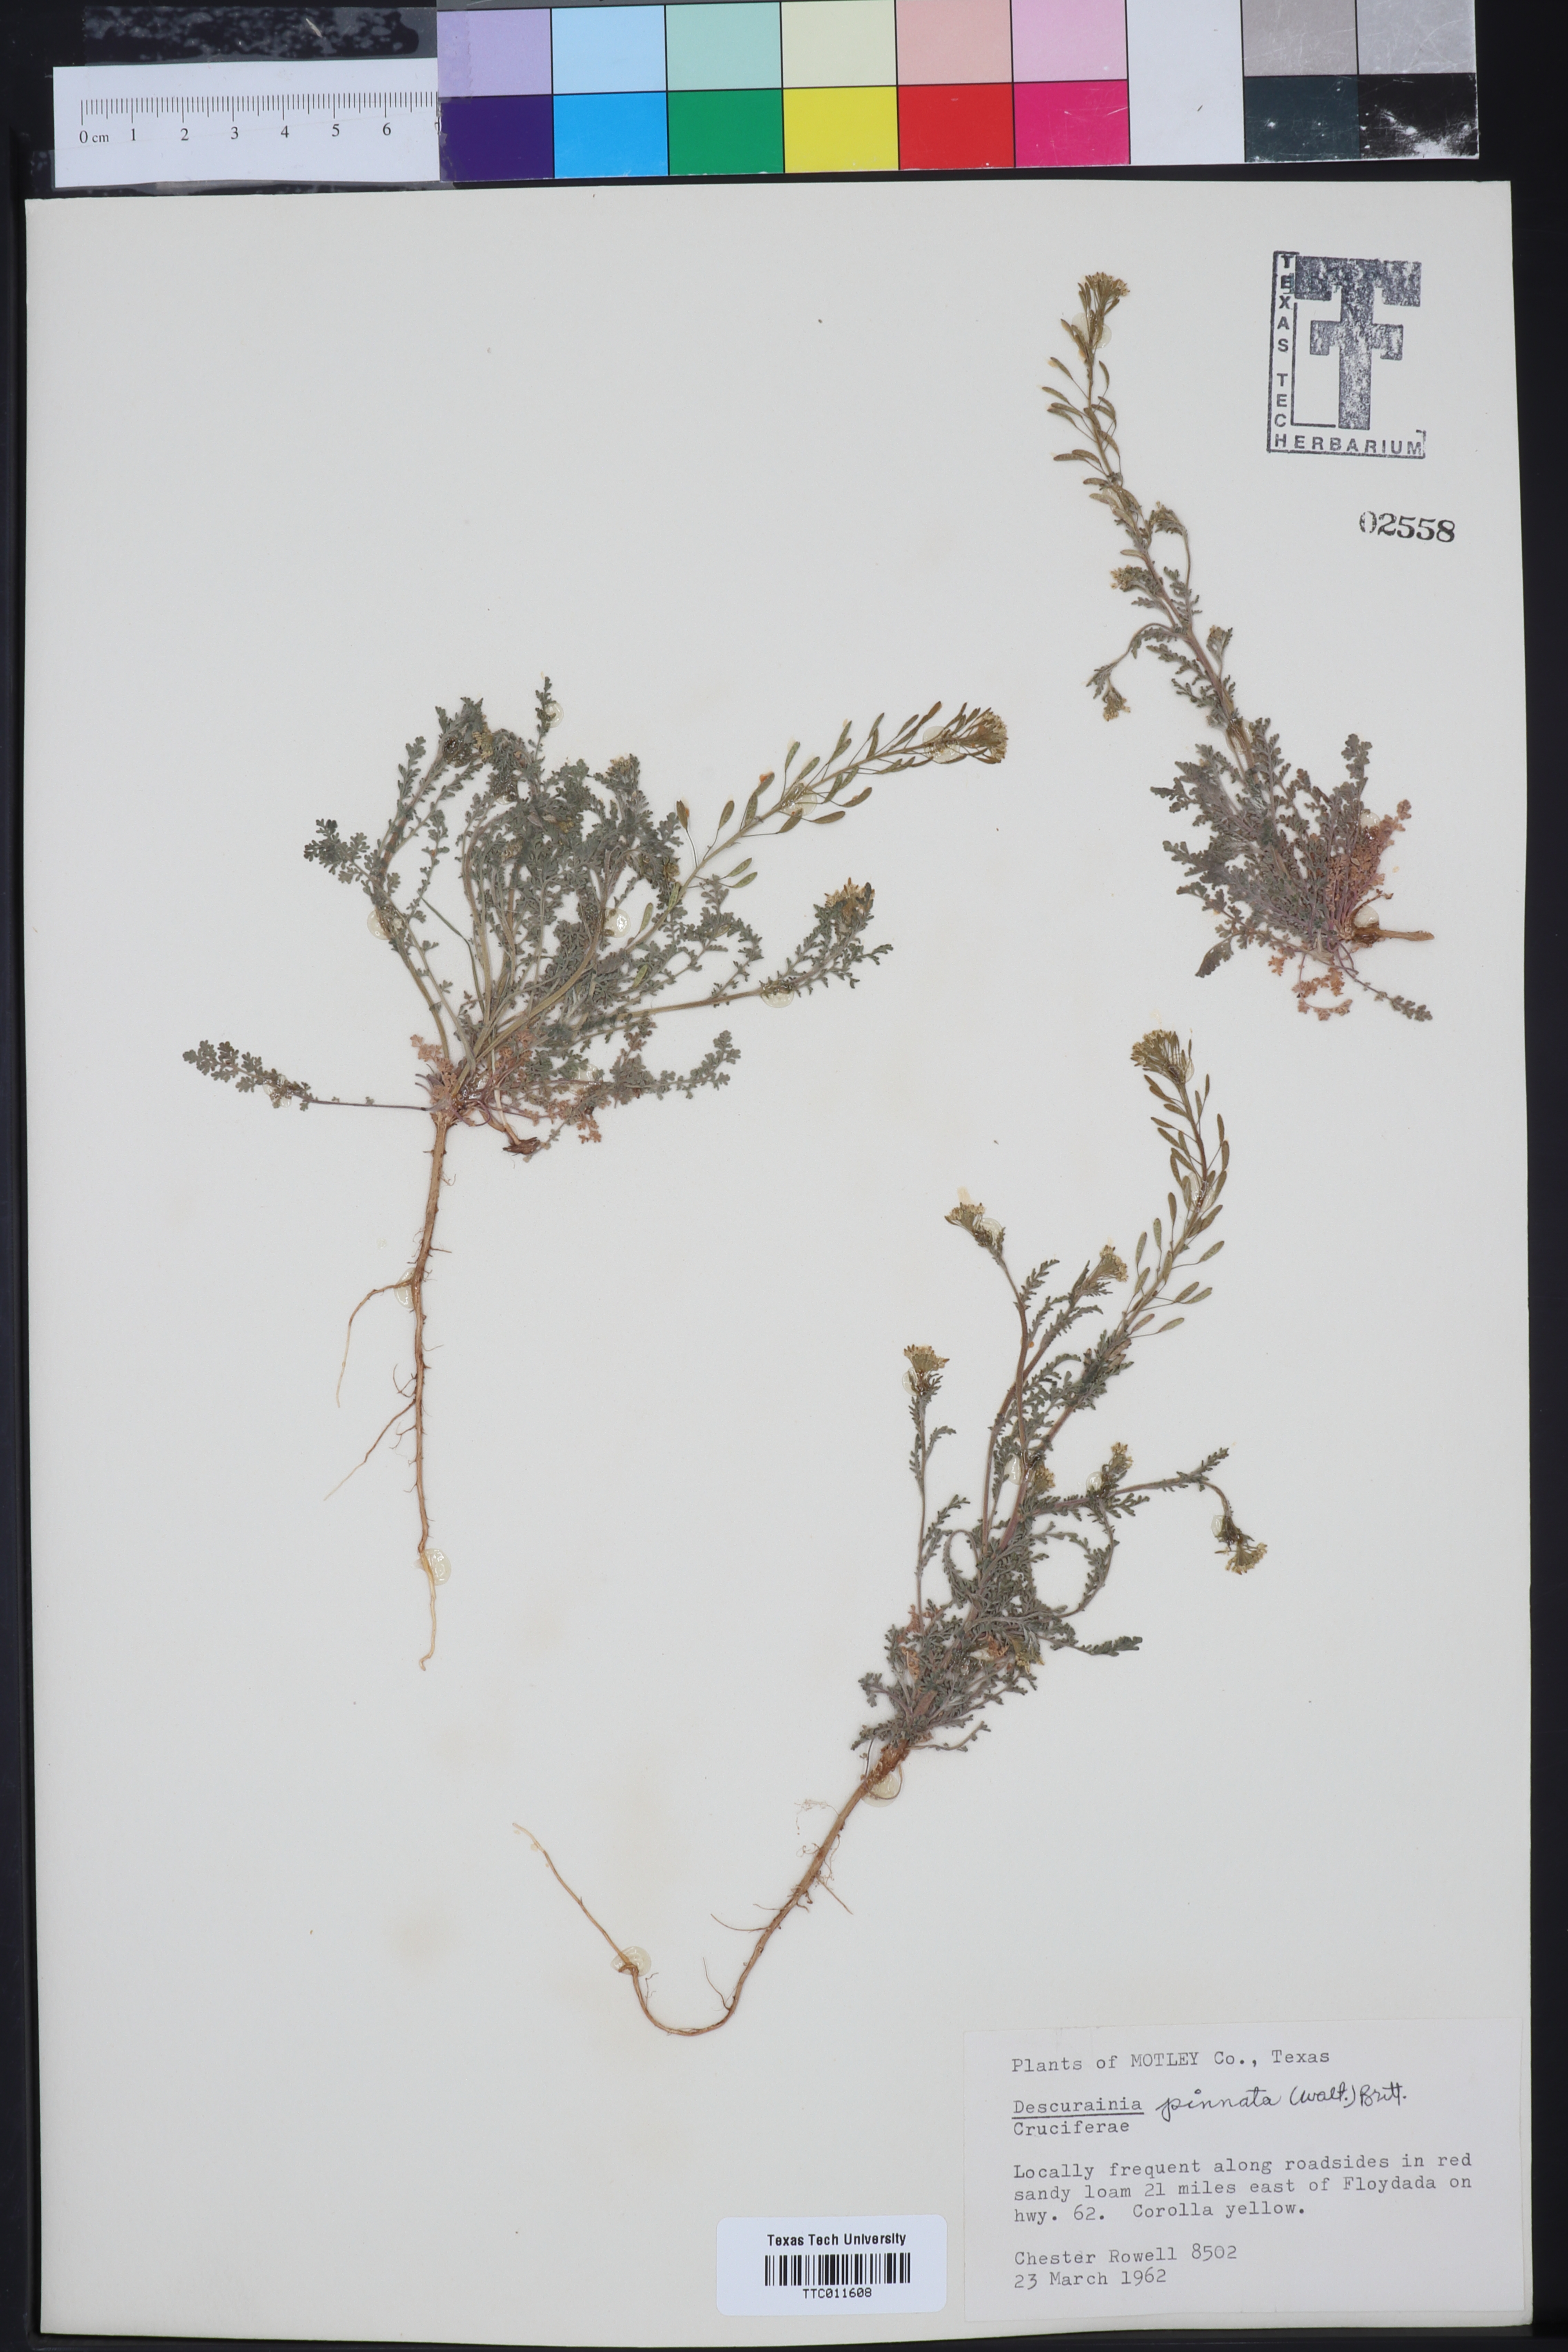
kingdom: Plantae
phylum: Tracheophyta
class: Magnoliopsida
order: Brassicales
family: Brassicaceae
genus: Descurainia
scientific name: Descurainia pinnata
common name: Western tansy mustard
